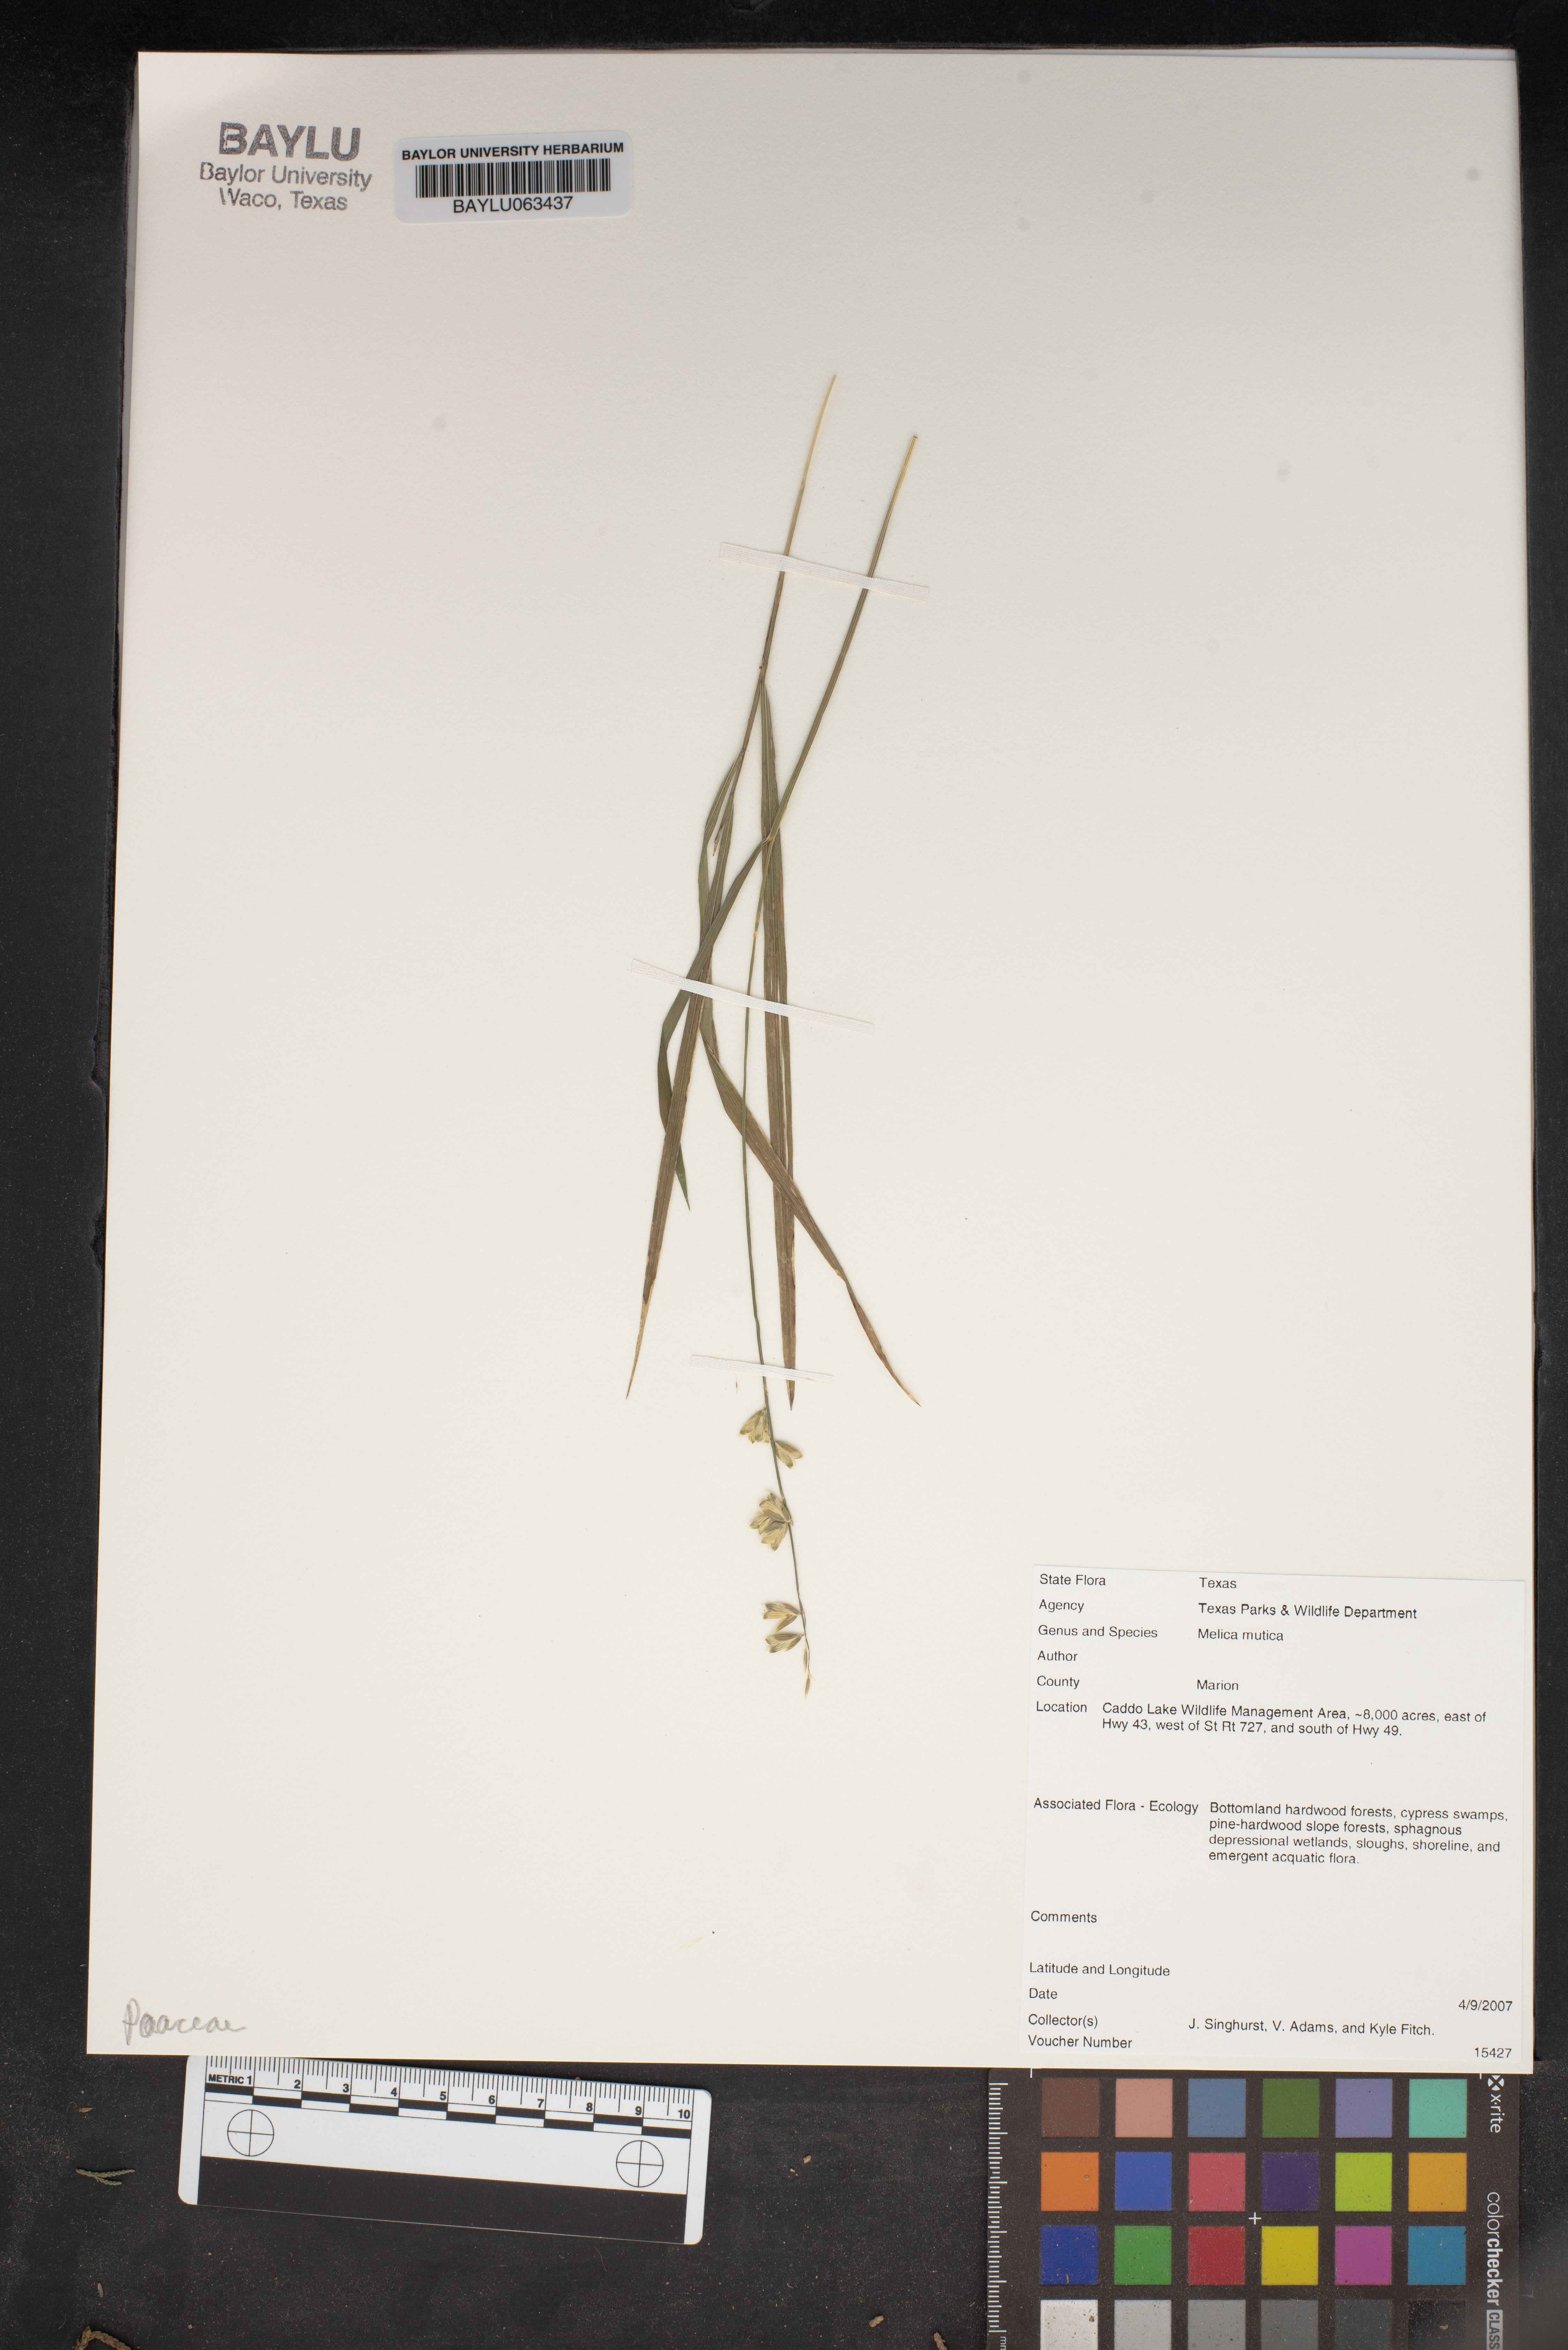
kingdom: Plantae
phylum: Tracheophyta
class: Liliopsida
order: Poales
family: Poaceae
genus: Melica
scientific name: Melica mutica
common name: Two-flower melic
